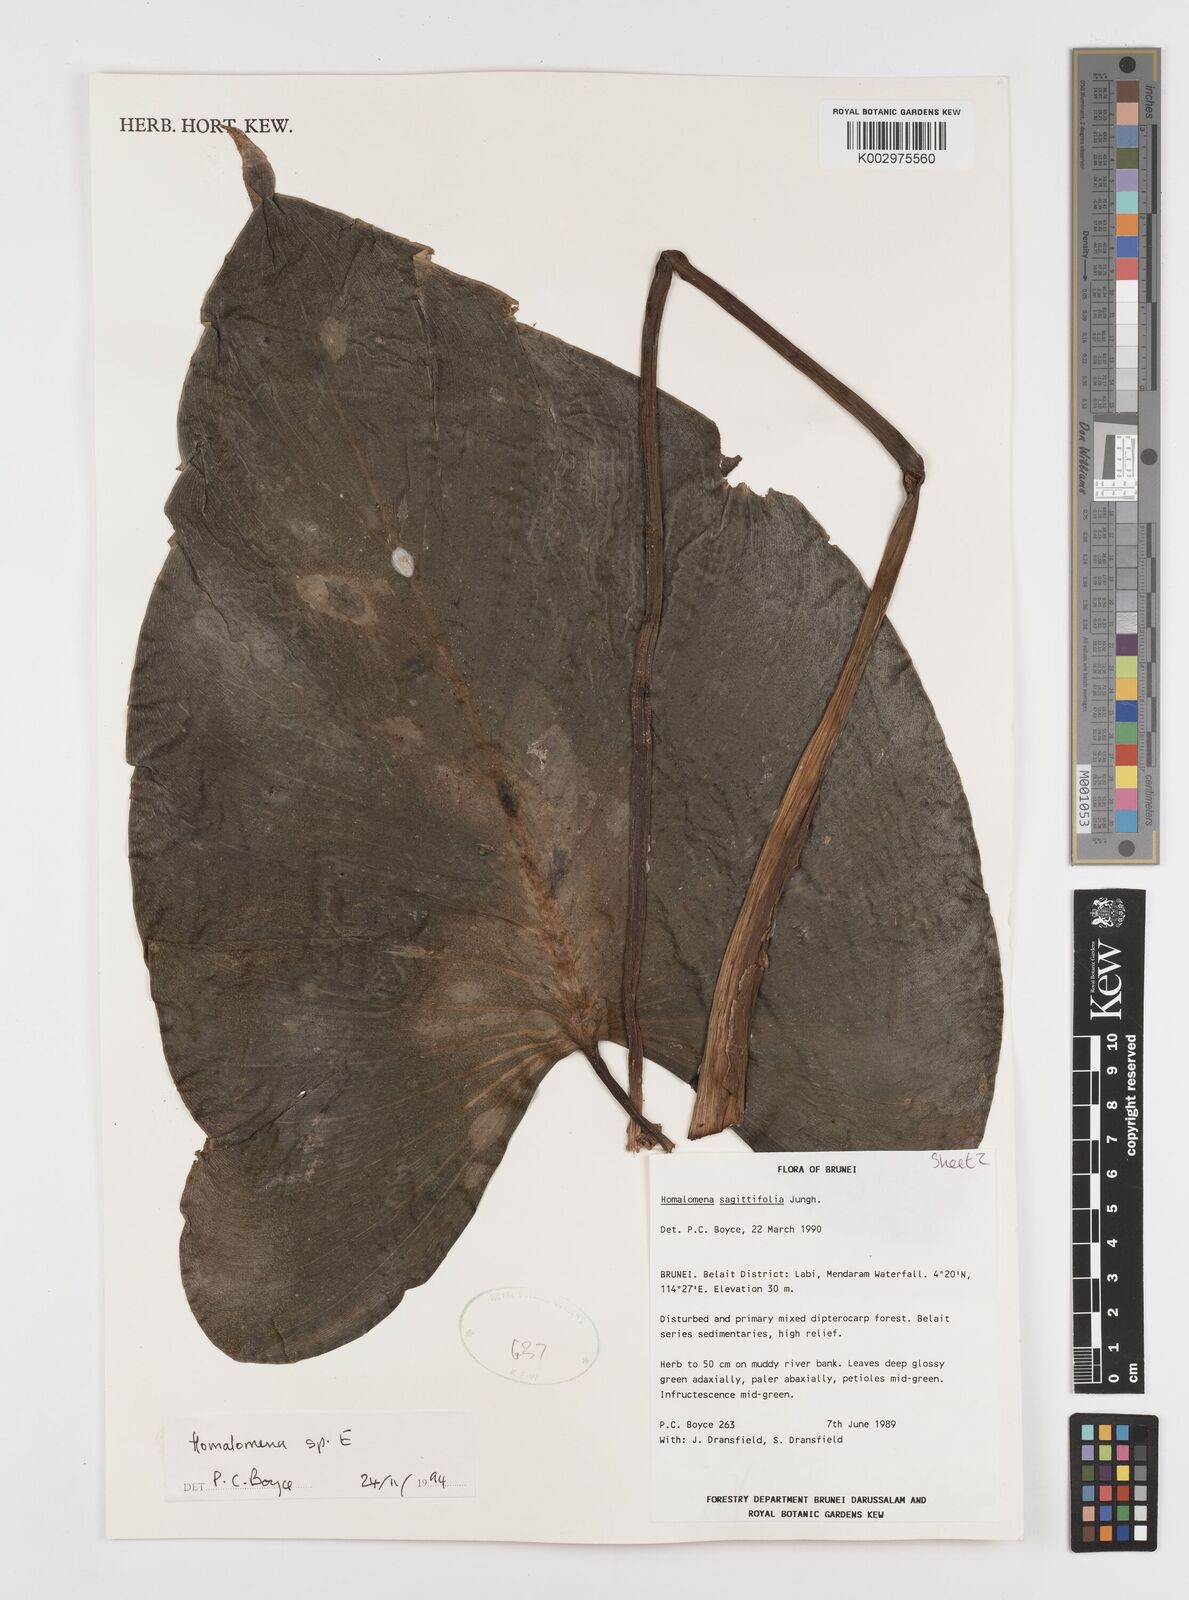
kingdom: Plantae
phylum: Tracheophyta
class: Liliopsida
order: Alismatales
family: Araceae
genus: Homalomena
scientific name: Homalomena
